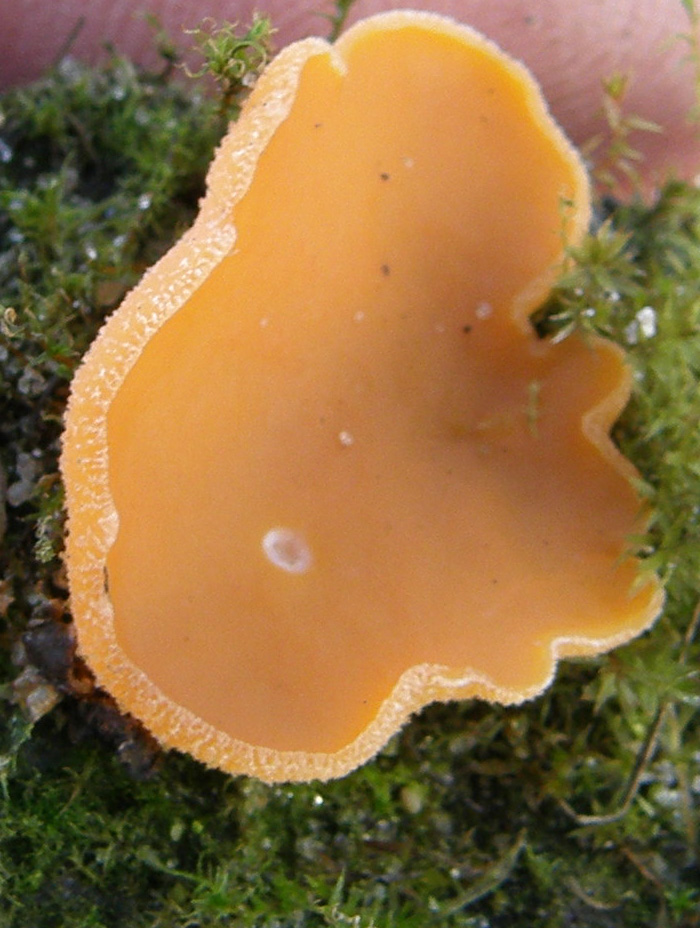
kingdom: Fungi
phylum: Ascomycota
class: Pezizomycetes
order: Pezizales
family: Pyronemataceae
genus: Aleuria
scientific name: Aleuria aurantia
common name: almindelig orangebæger
